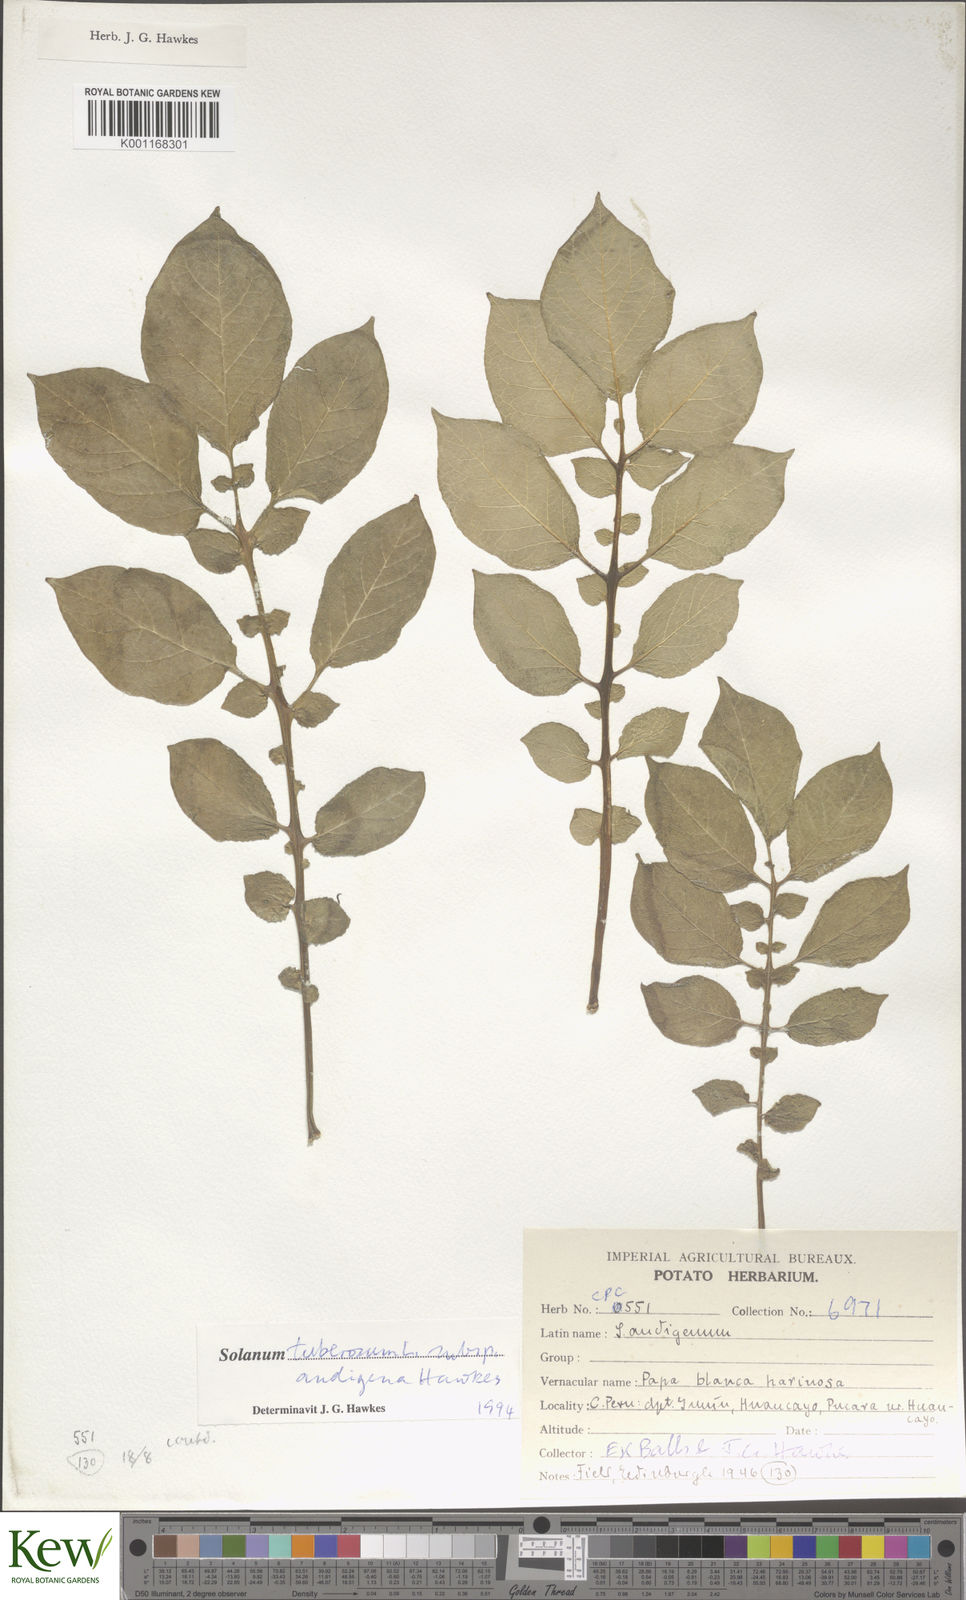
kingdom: Plantae
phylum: Tracheophyta
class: Magnoliopsida
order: Solanales
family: Solanaceae
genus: Solanum
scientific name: Solanum tuberosum
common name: Potato
